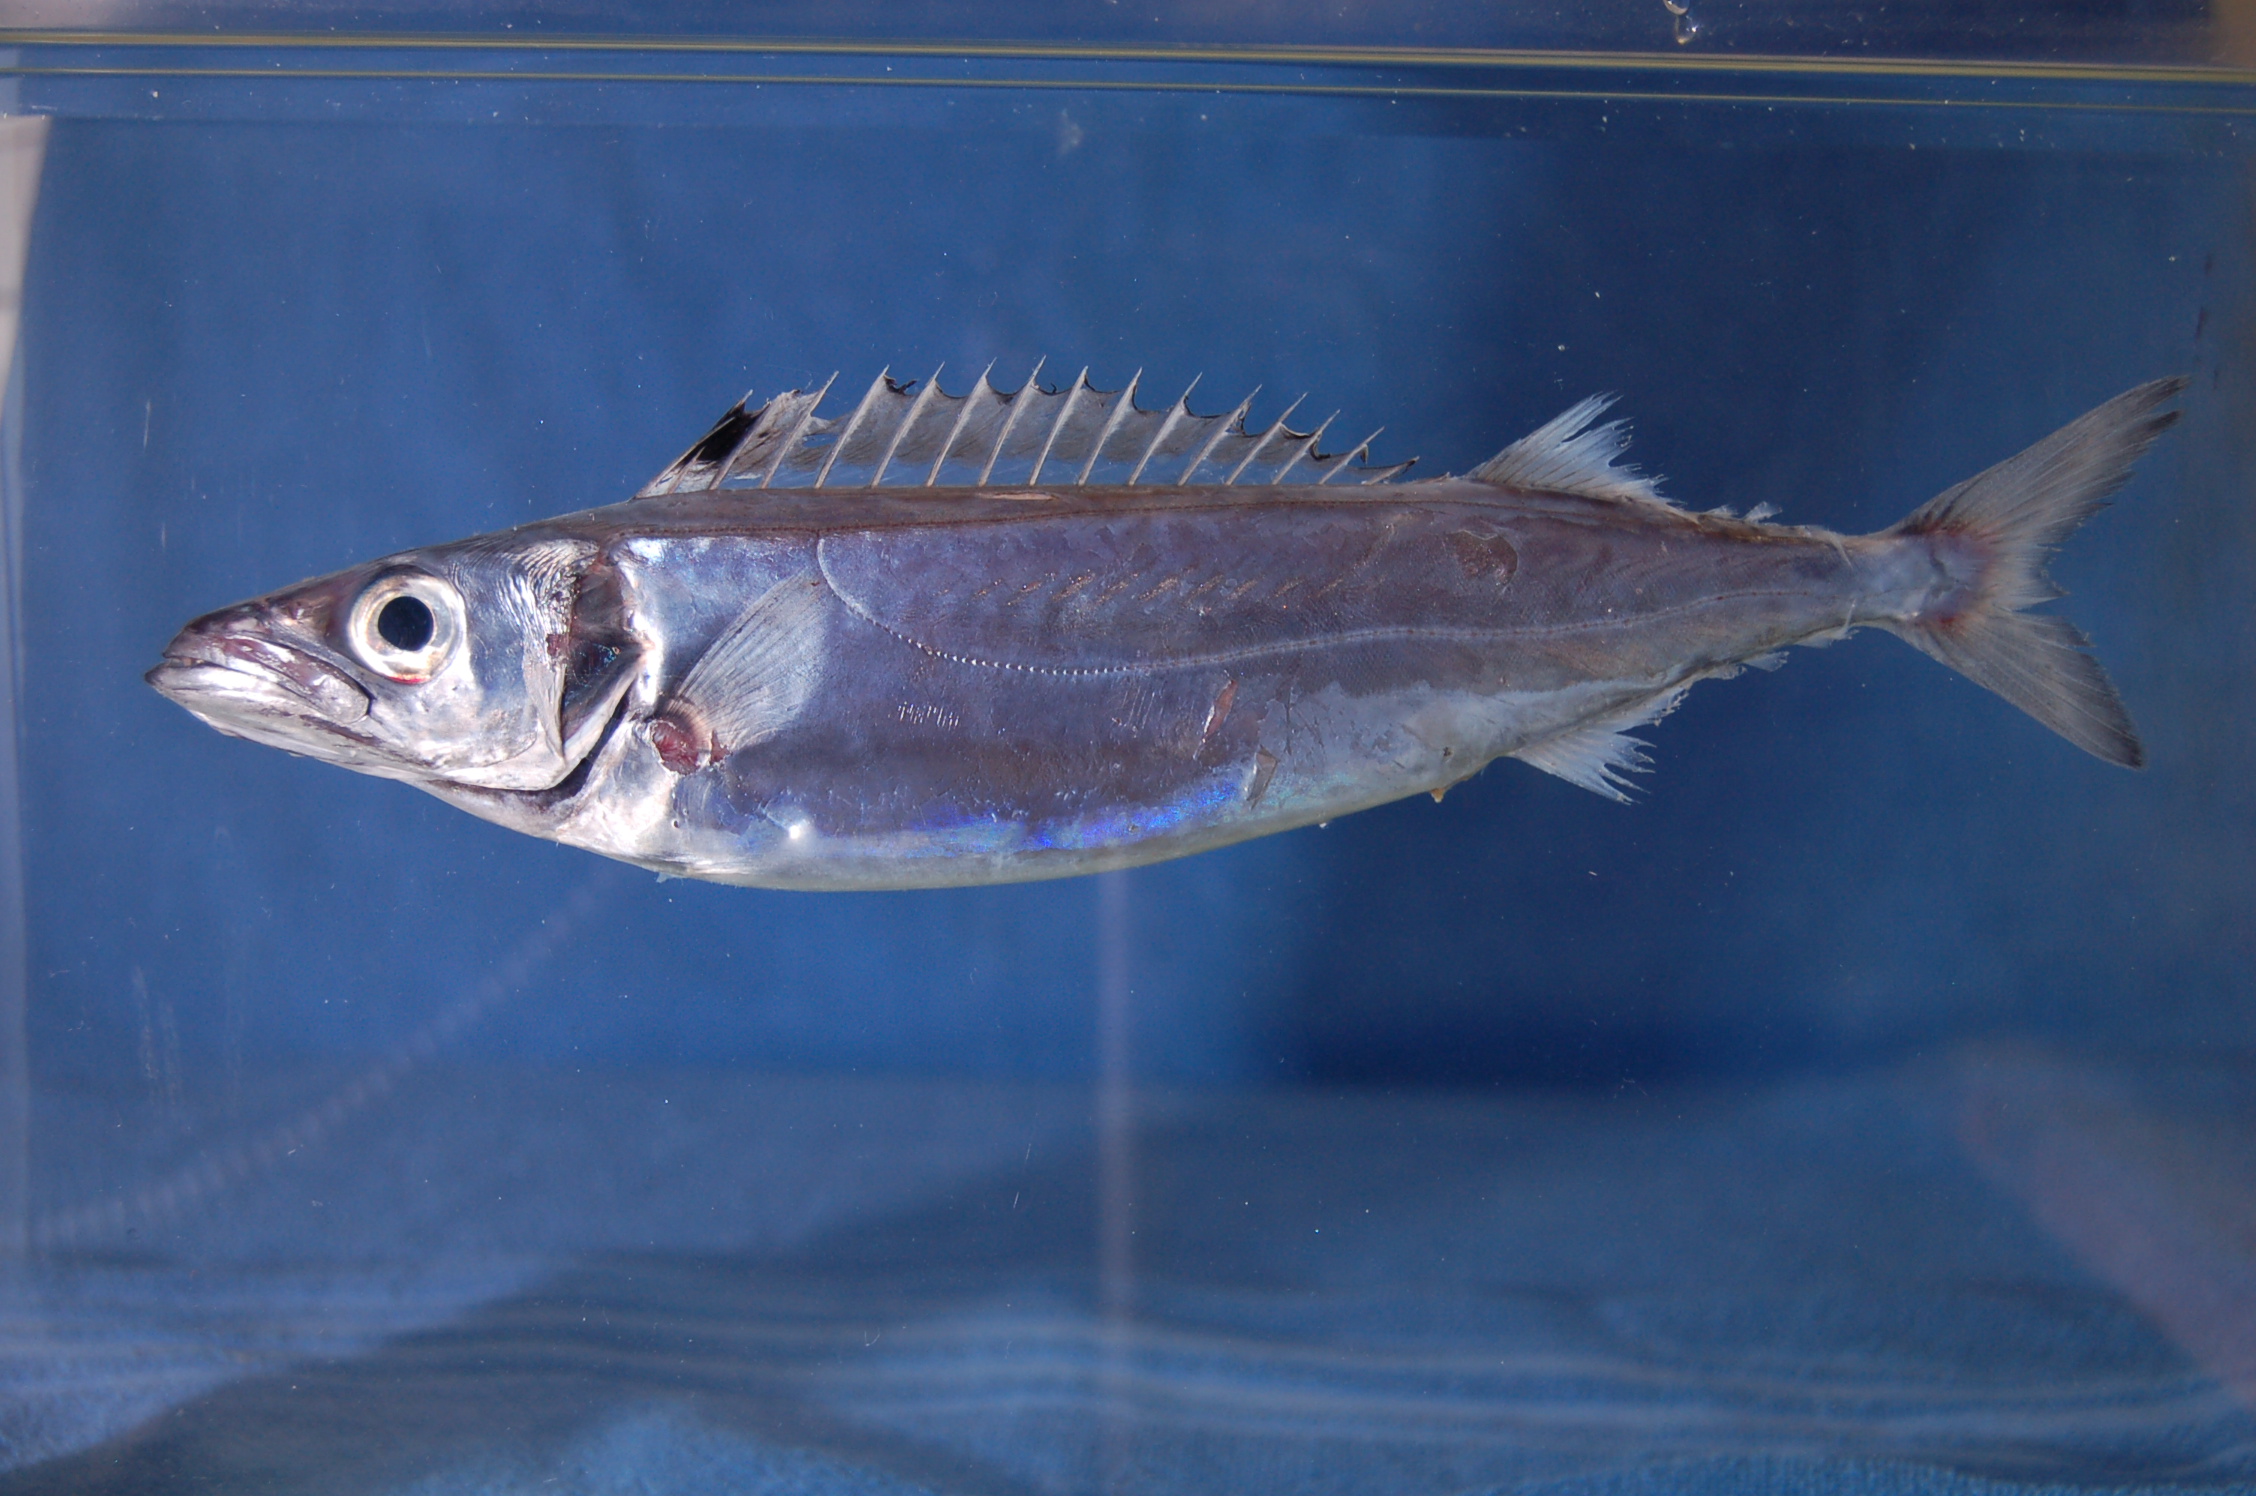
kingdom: Animalia
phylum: Chordata
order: Perciformes
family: Gempylidae
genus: Rexea
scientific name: Rexea prometheoides
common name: Royal escolar
